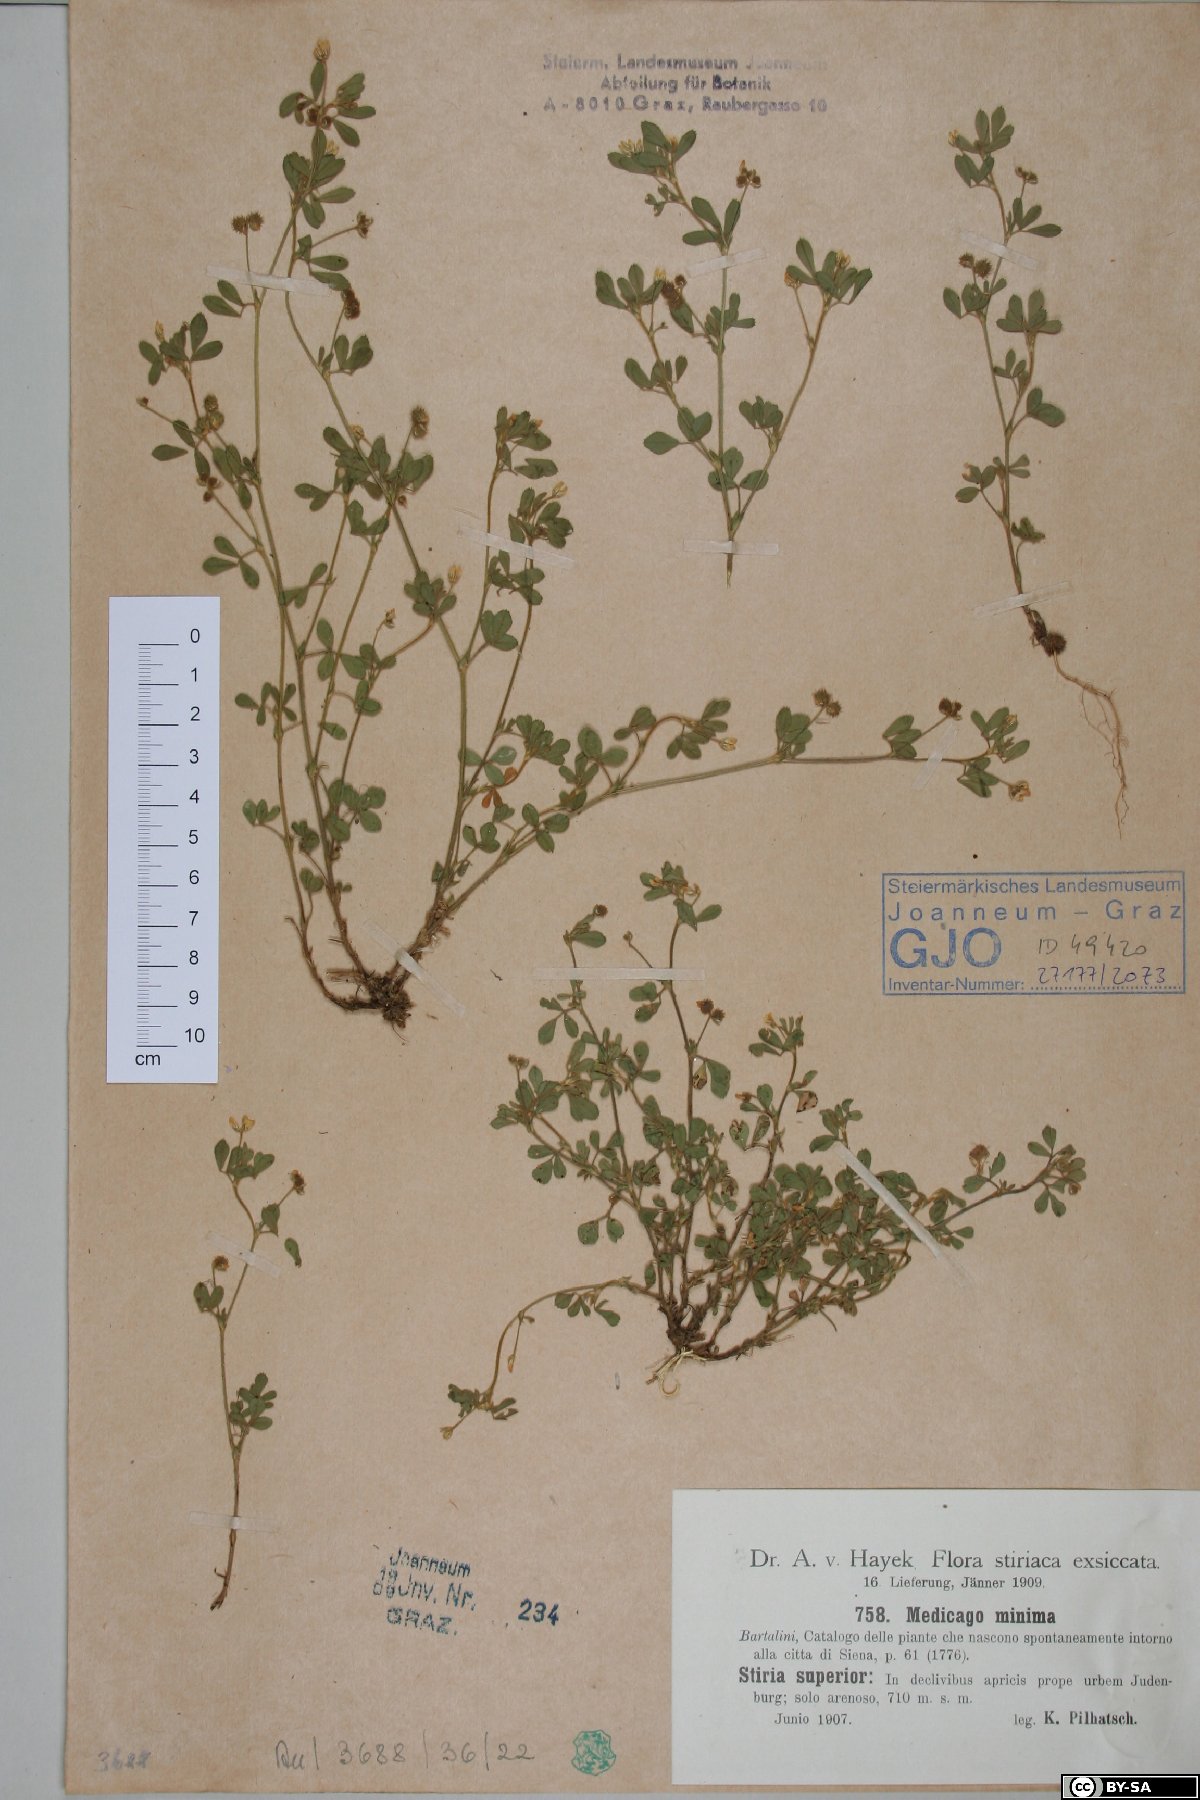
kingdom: Plantae
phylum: Tracheophyta
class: Magnoliopsida
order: Fabales
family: Fabaceae
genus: Medicago
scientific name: Medicago minima
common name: Little bur-clover
